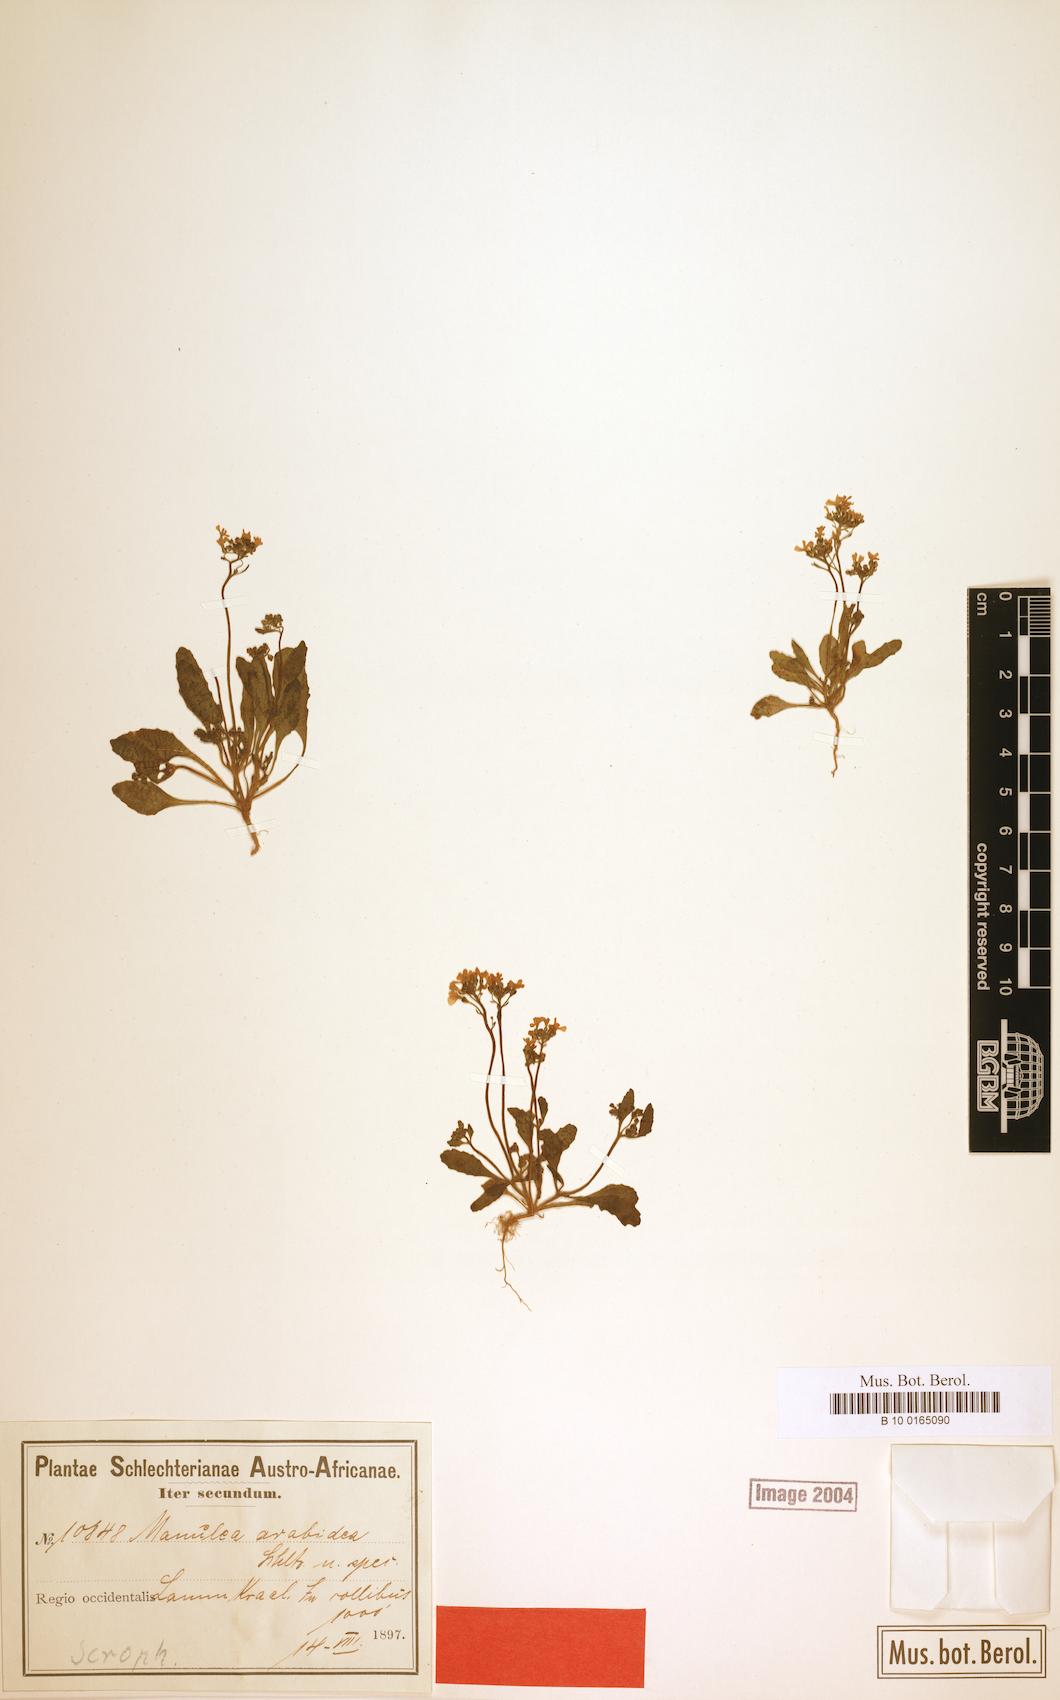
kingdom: Plantae
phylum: Tracheophyta
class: Magnoliopsida
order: Lamiales
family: Scrophulariaceae
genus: Manulea
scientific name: Manulea arabidea
